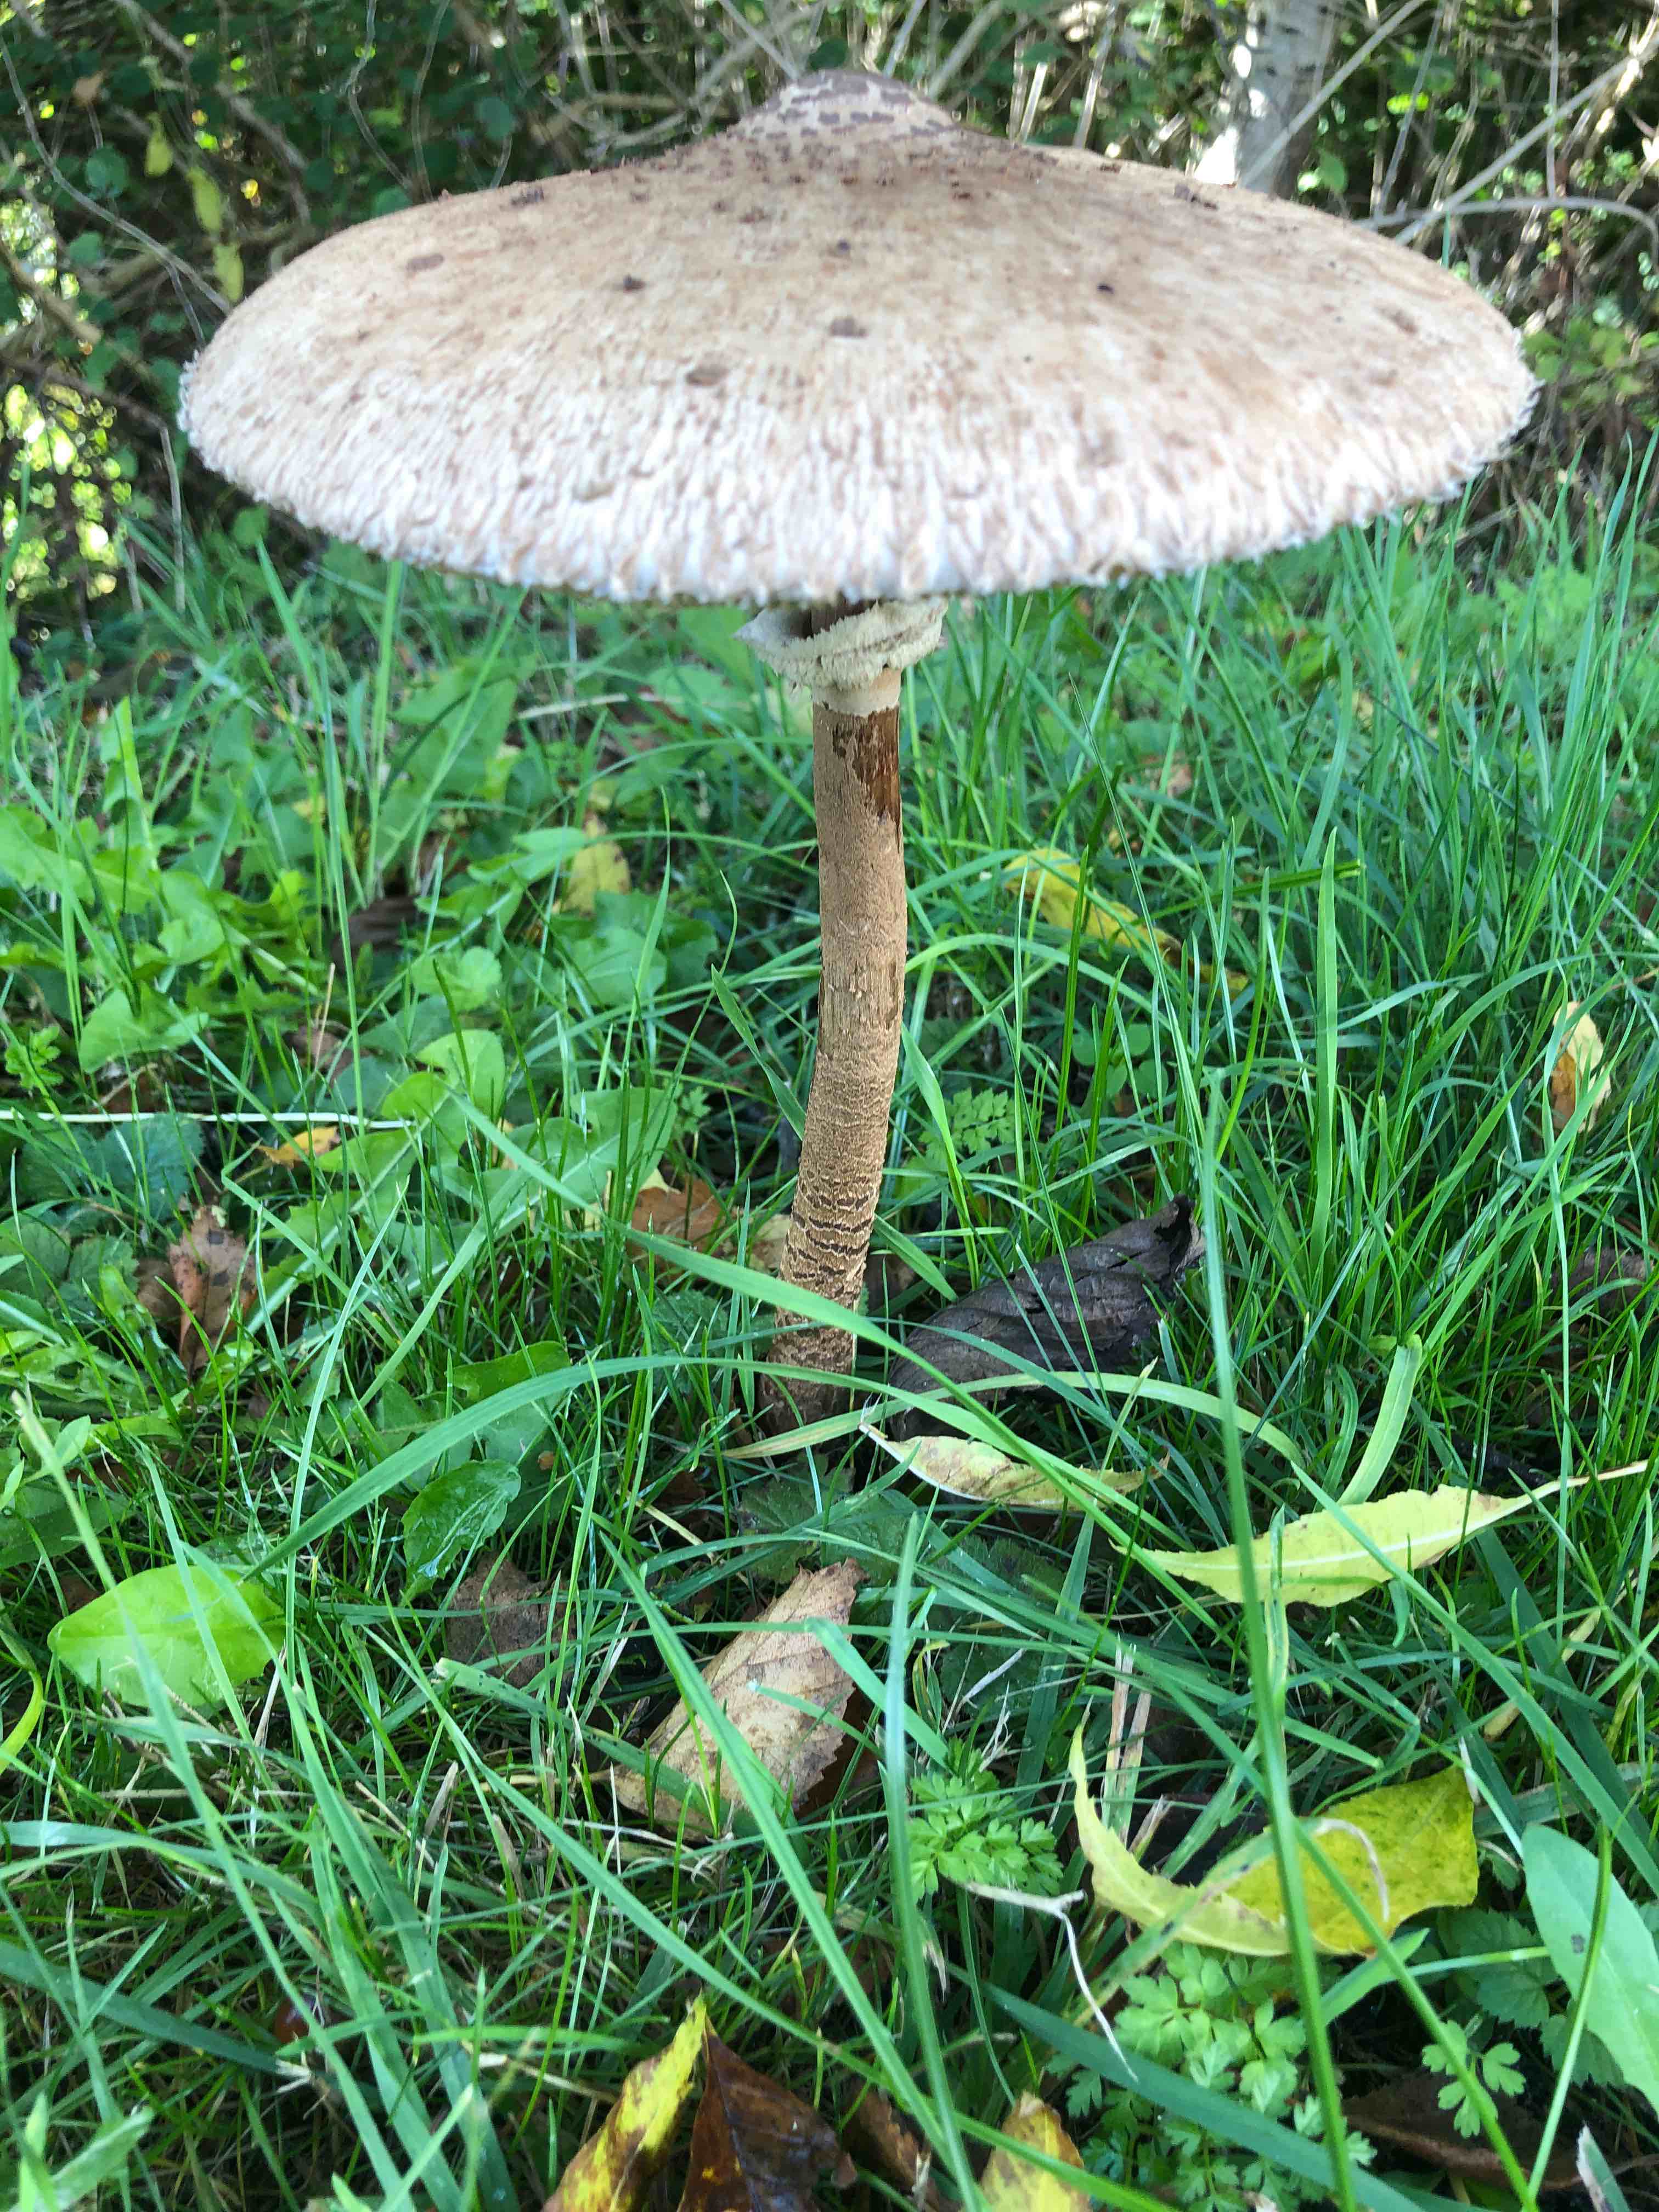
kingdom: Fungi
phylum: Basidiomycota
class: Agaricomycetes
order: Agaricales
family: Agaricaceae
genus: Macrolepiota
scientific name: Macrolepiota procera
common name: stor kæmpeparasolhat
